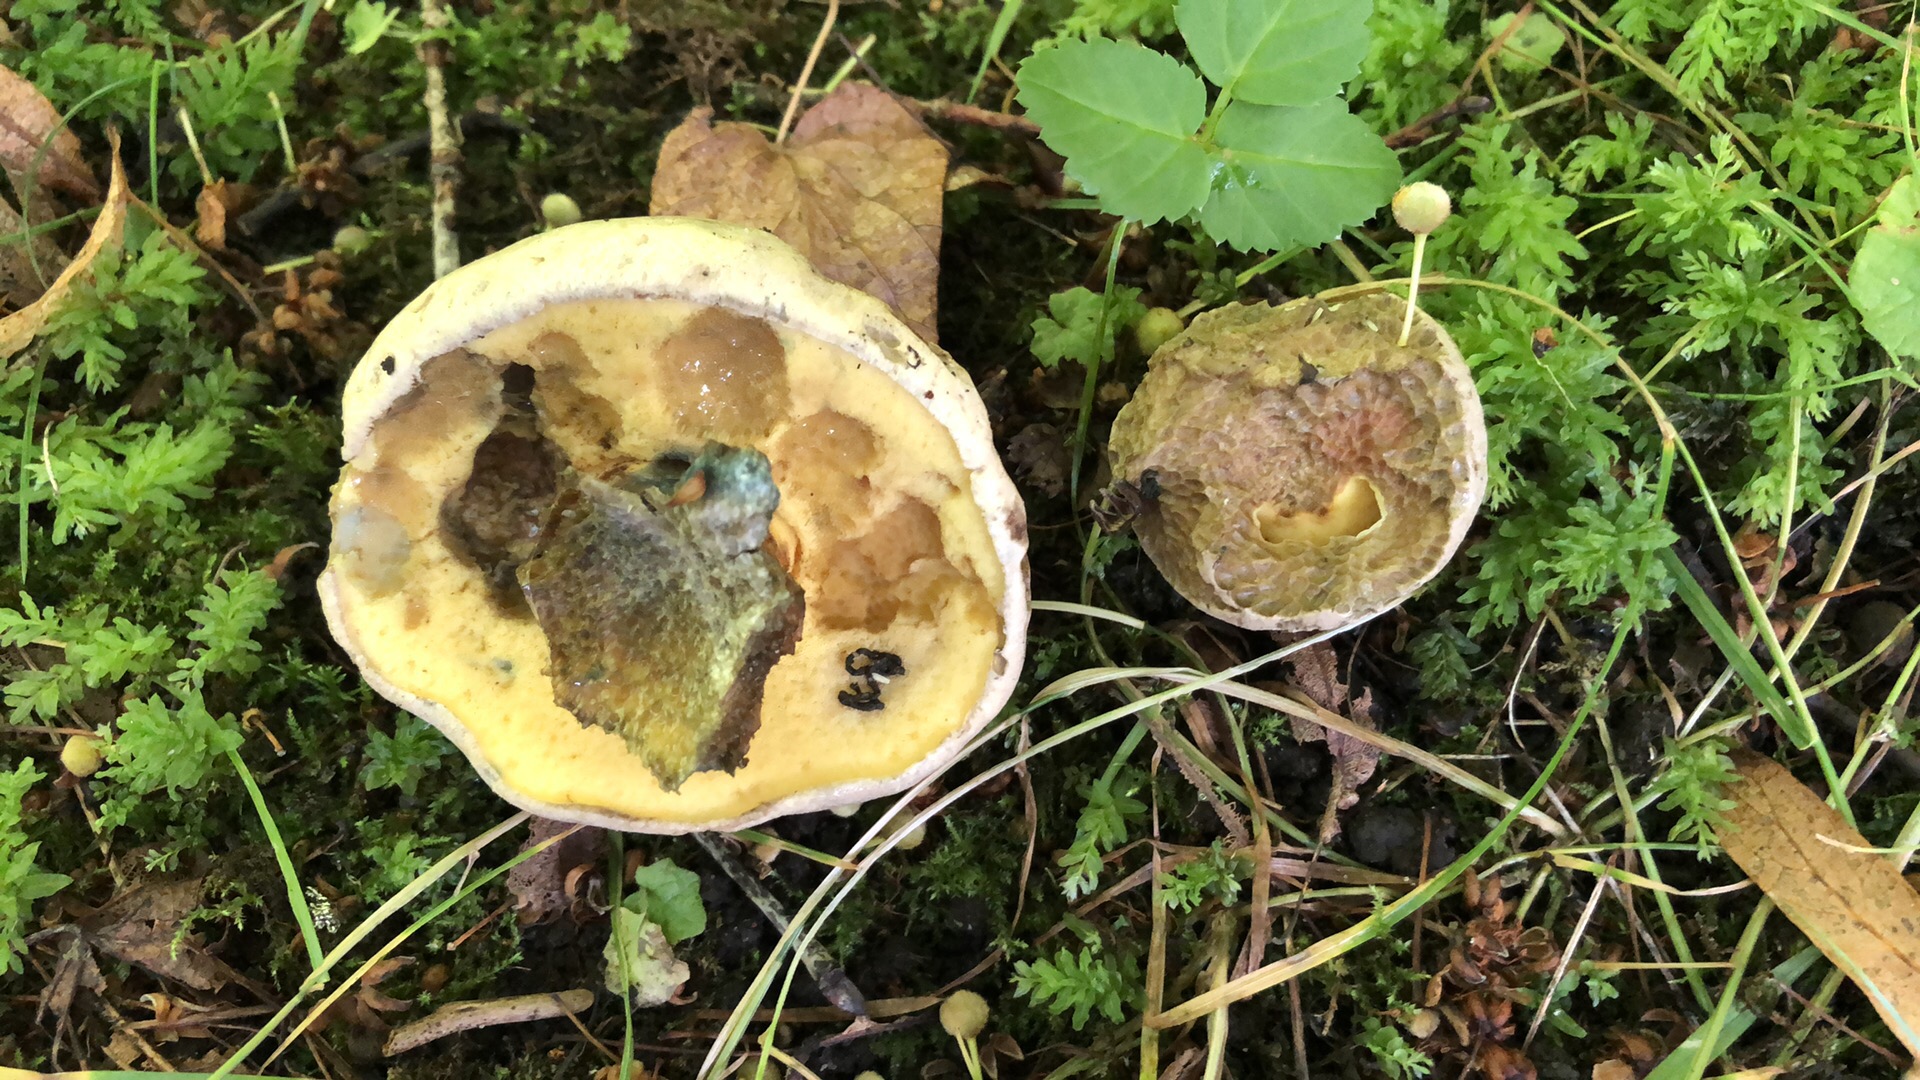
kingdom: Fungi
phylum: Basidiomycota
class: Agaricomycetes
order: Boletales
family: Boletaceae
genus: Caloboletus
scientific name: Caloboletus radicans
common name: rod-rørhat
